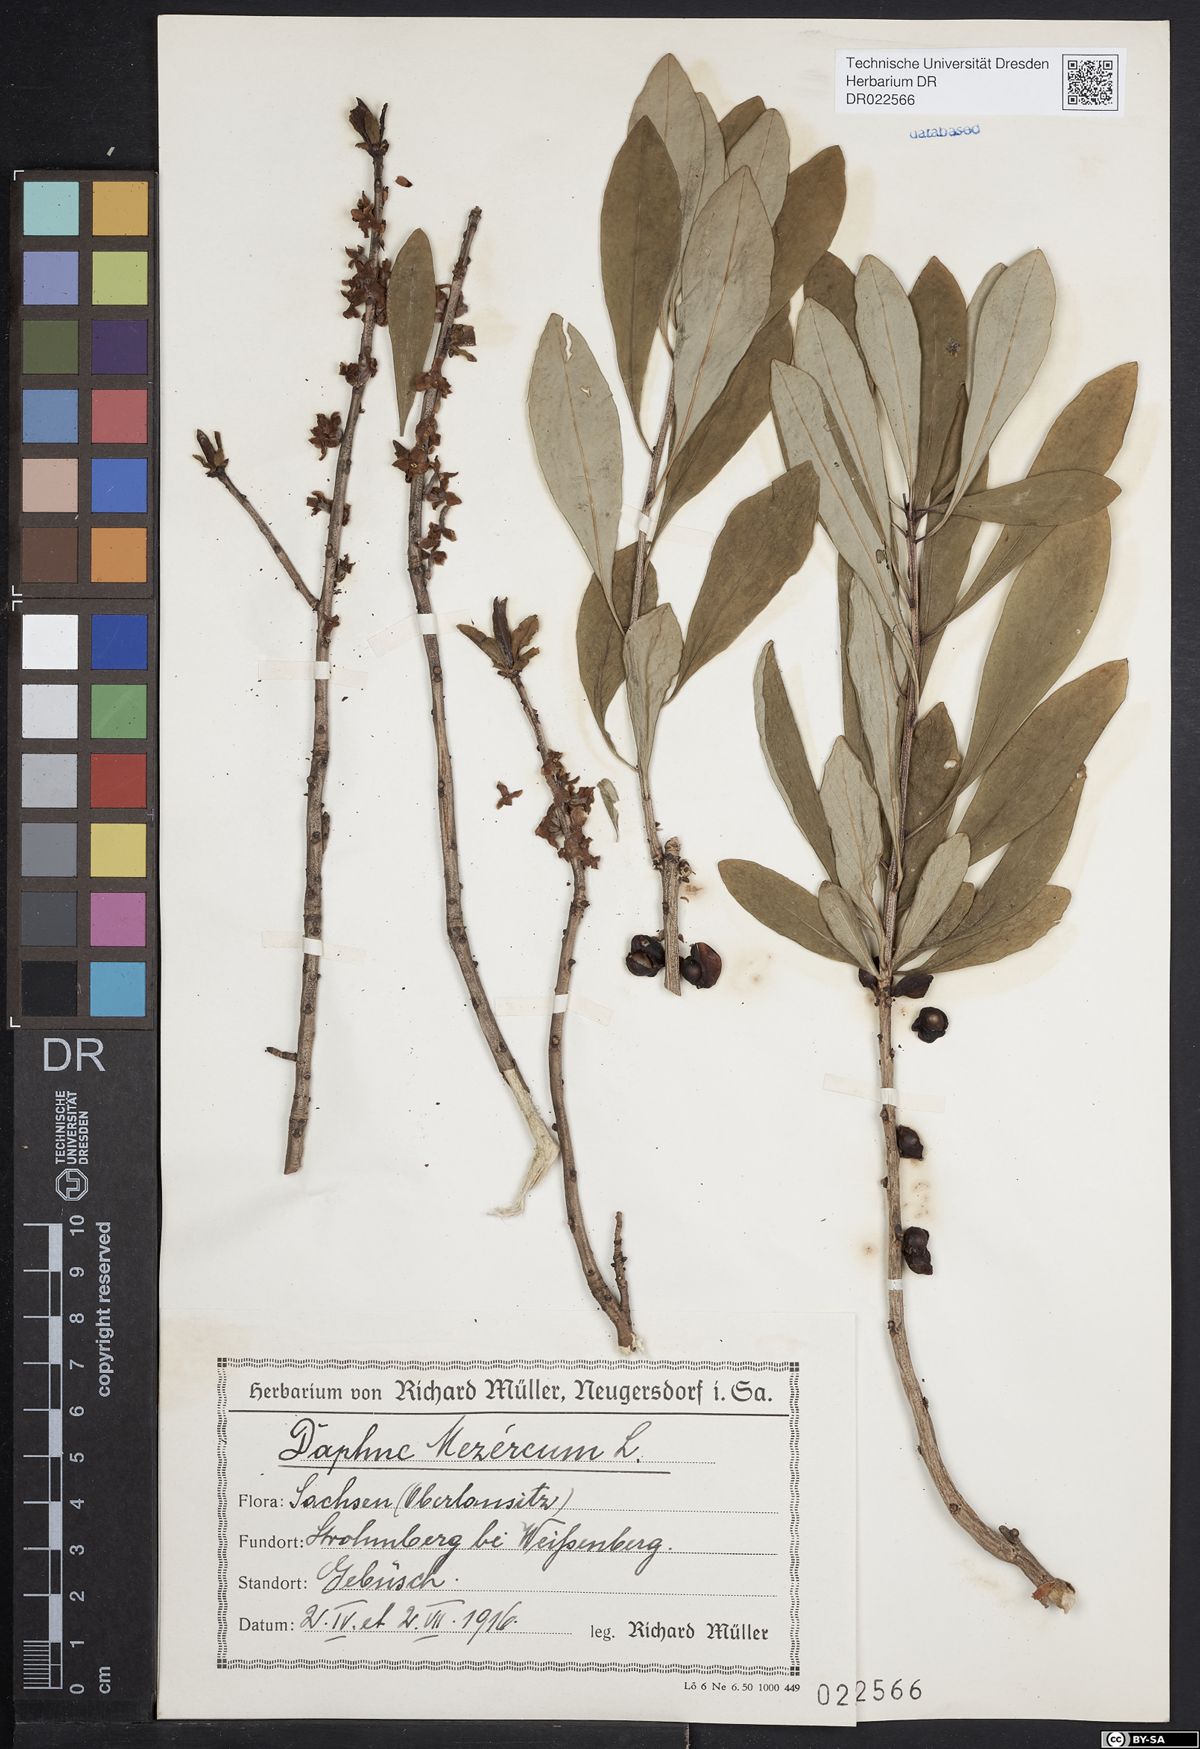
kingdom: Plantae
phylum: Tracheophyta
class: Magnoliopsida
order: Malvales
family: Thymelaeaceae
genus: Daphne
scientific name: Daphne mezereum
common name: Mezereon
